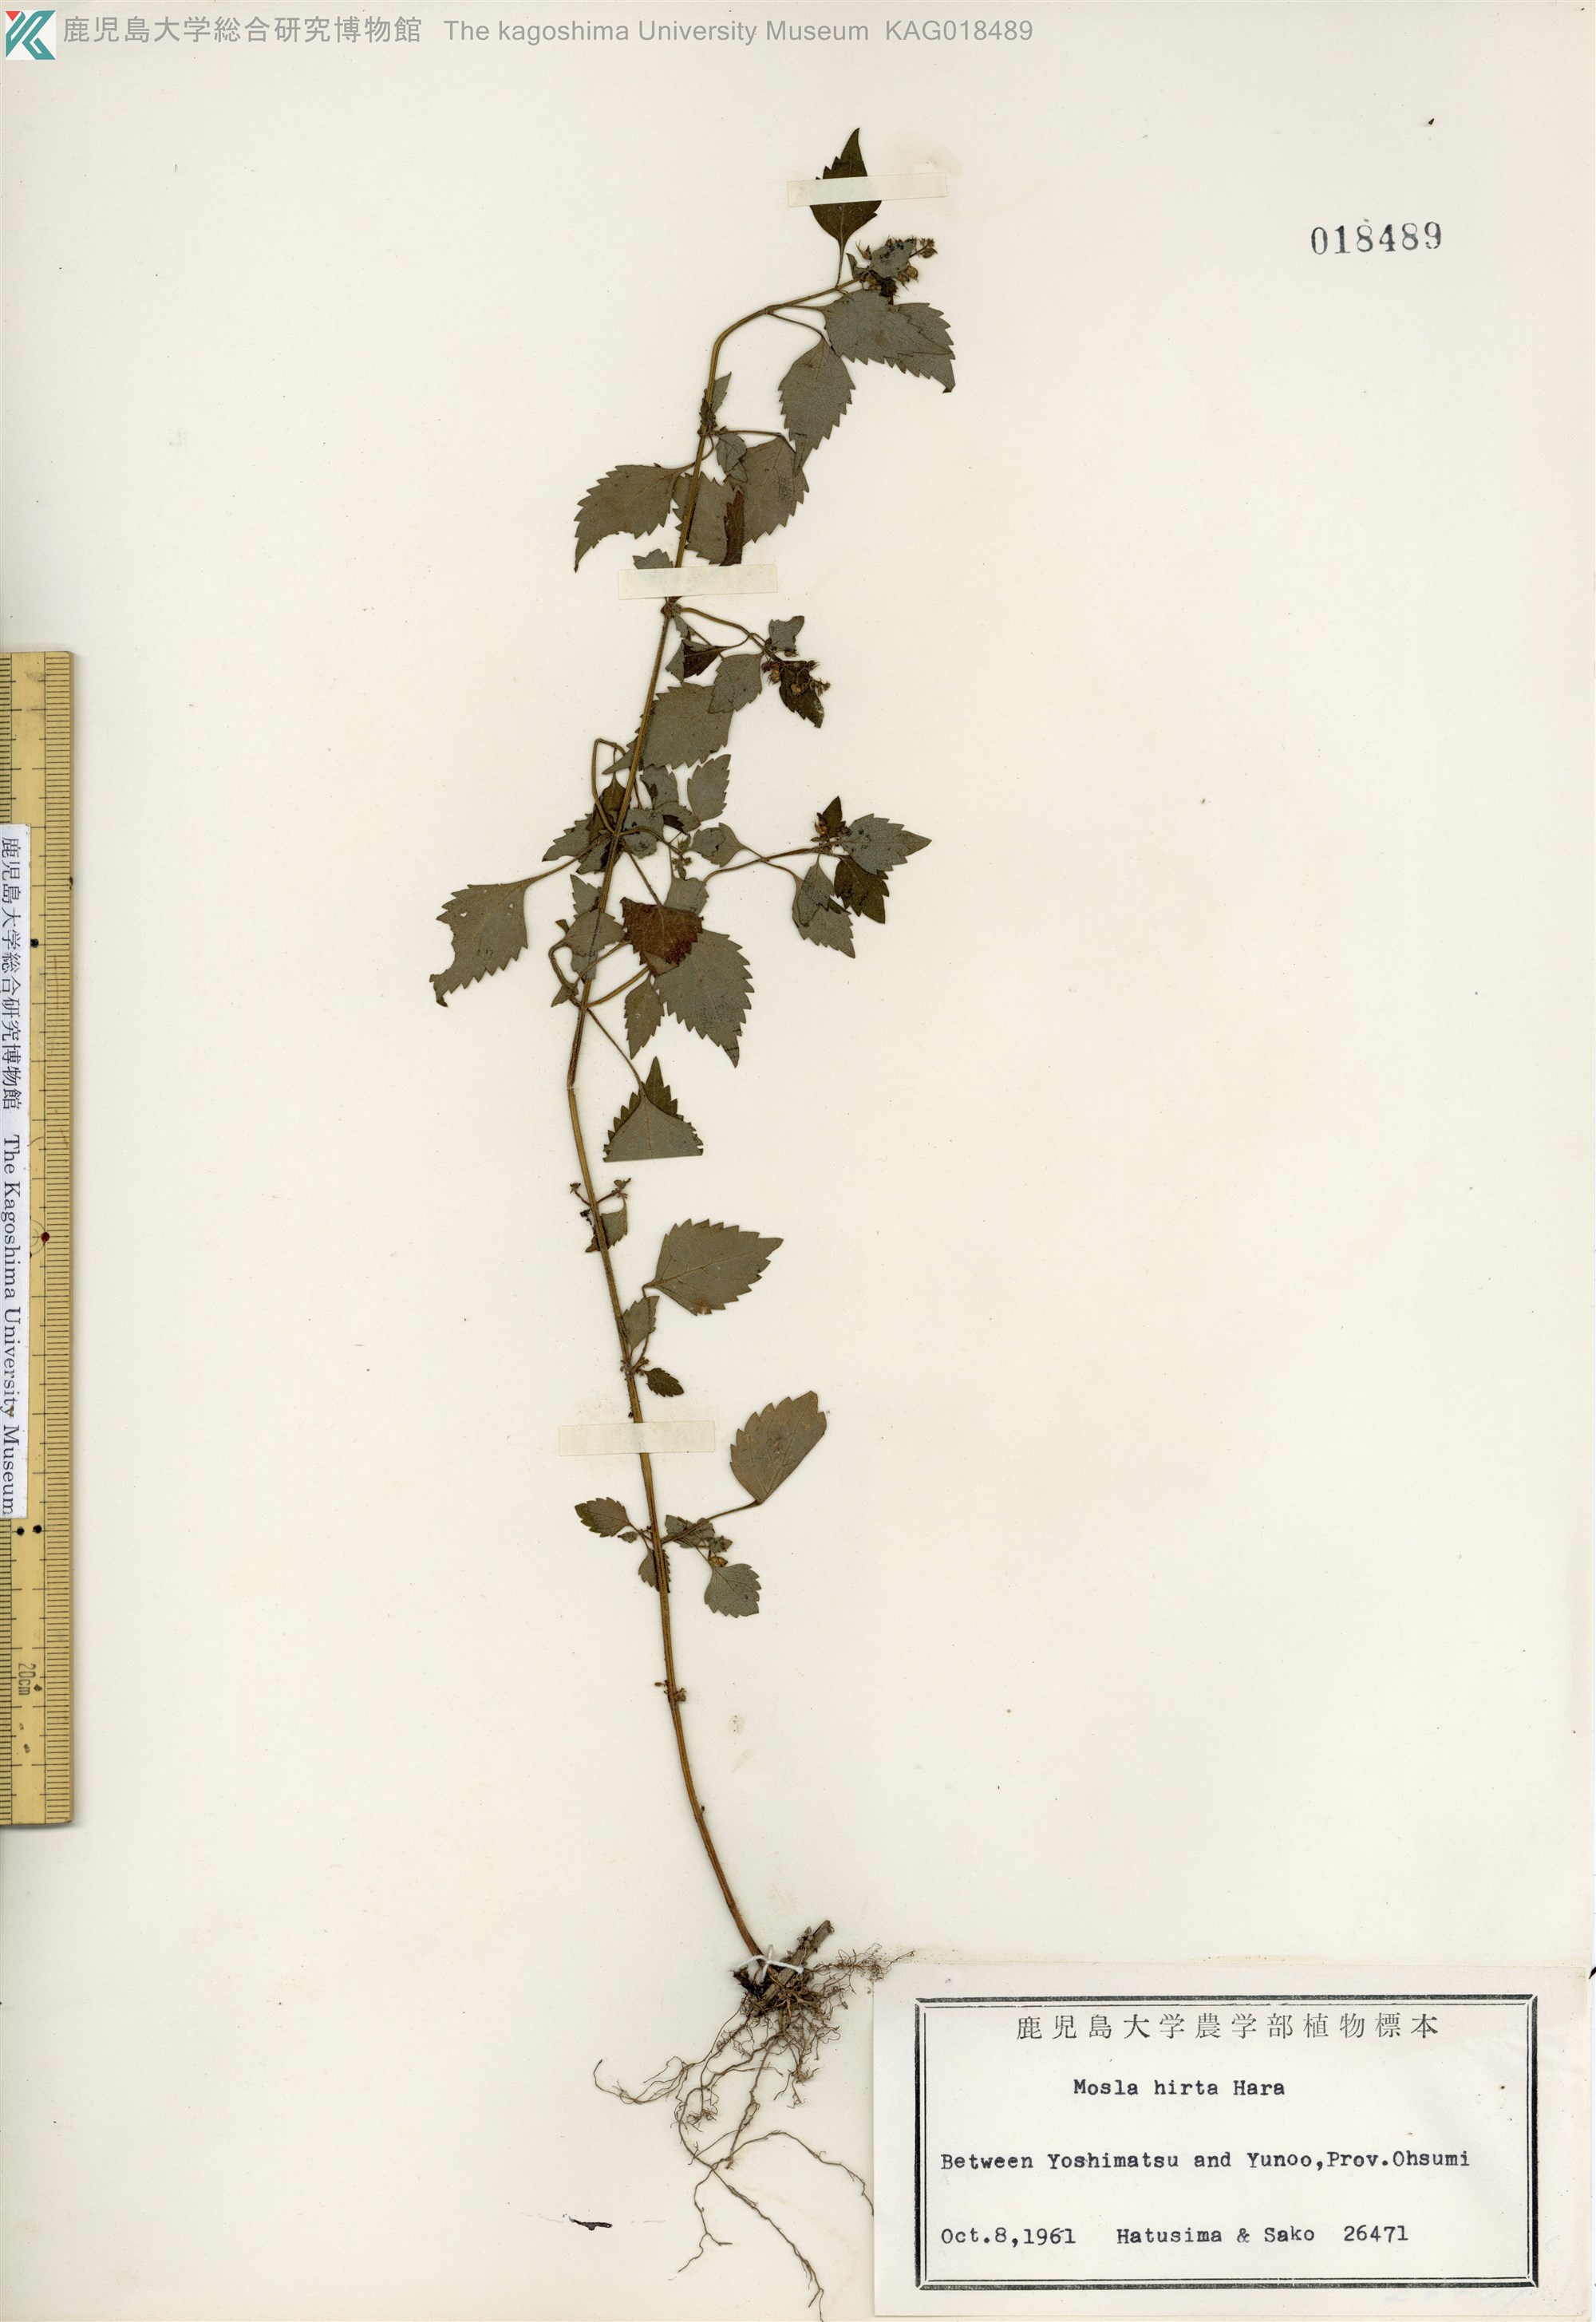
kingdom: Plantae
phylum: Tracheophyta
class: Magnoliopsida
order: Lamiales
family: Lamiaceae
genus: Mosla
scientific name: Mosla dianthera
